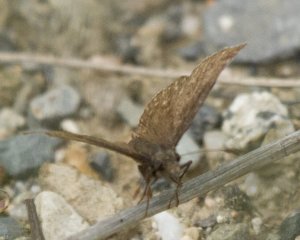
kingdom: Animalia
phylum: Arthropoda
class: Insecta
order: Lepidoptera
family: Hesperiidae
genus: Erynnis
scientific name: Erynnis icelus
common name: Dreamy Duskywing
